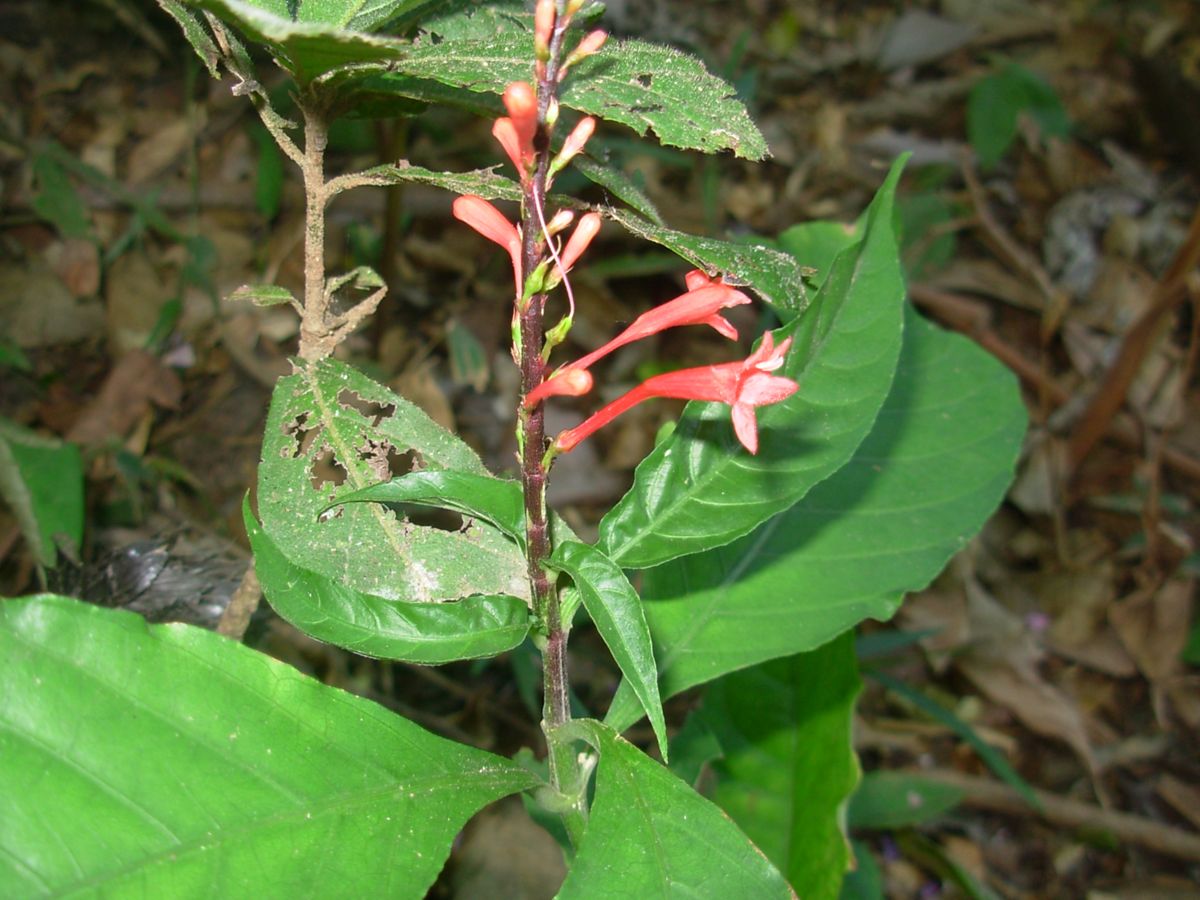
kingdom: Plantae
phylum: Tracheophyta
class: Magnoliopsida
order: Lamiales
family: Acanthaceae
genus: Odontonema
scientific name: Odontonema tubaeforme
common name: Firespike
